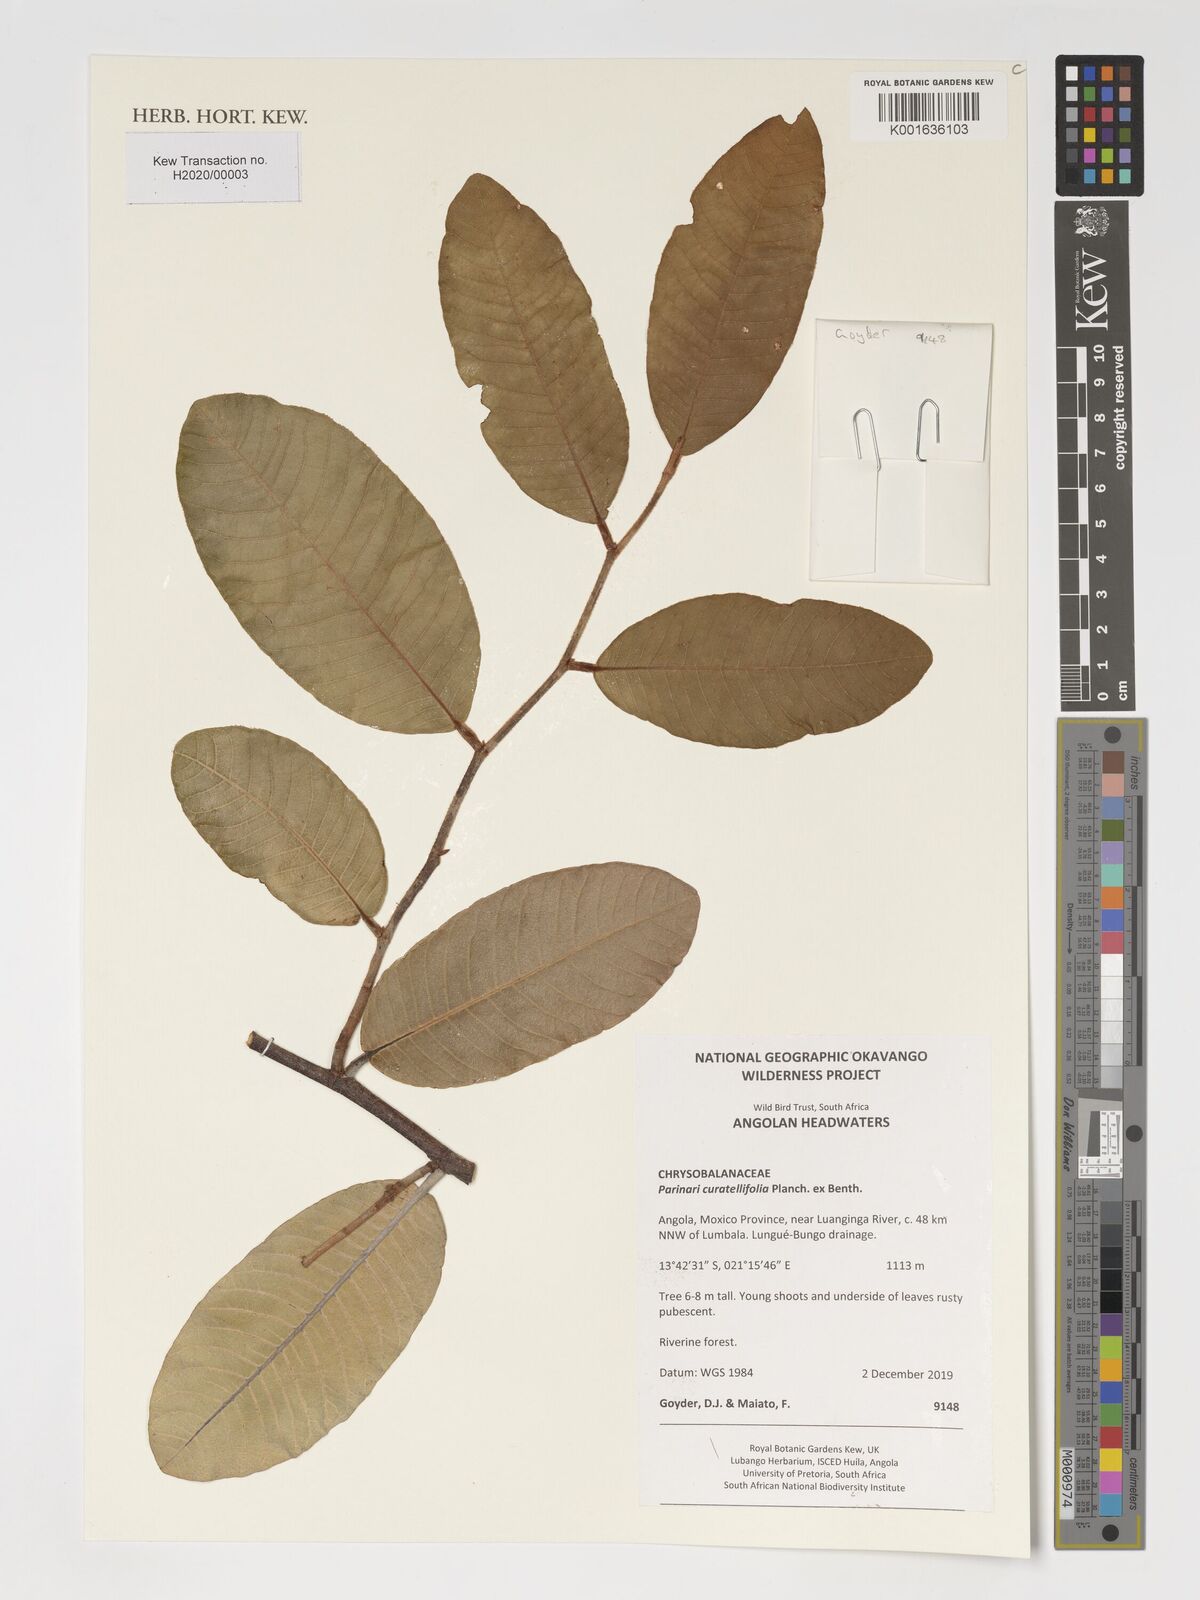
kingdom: Plantae
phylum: Tracheophyta
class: Magnoliopsida
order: Malpighiales
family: Chrysobalanaceae
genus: Parinari
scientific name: Parinari curatellifolia
